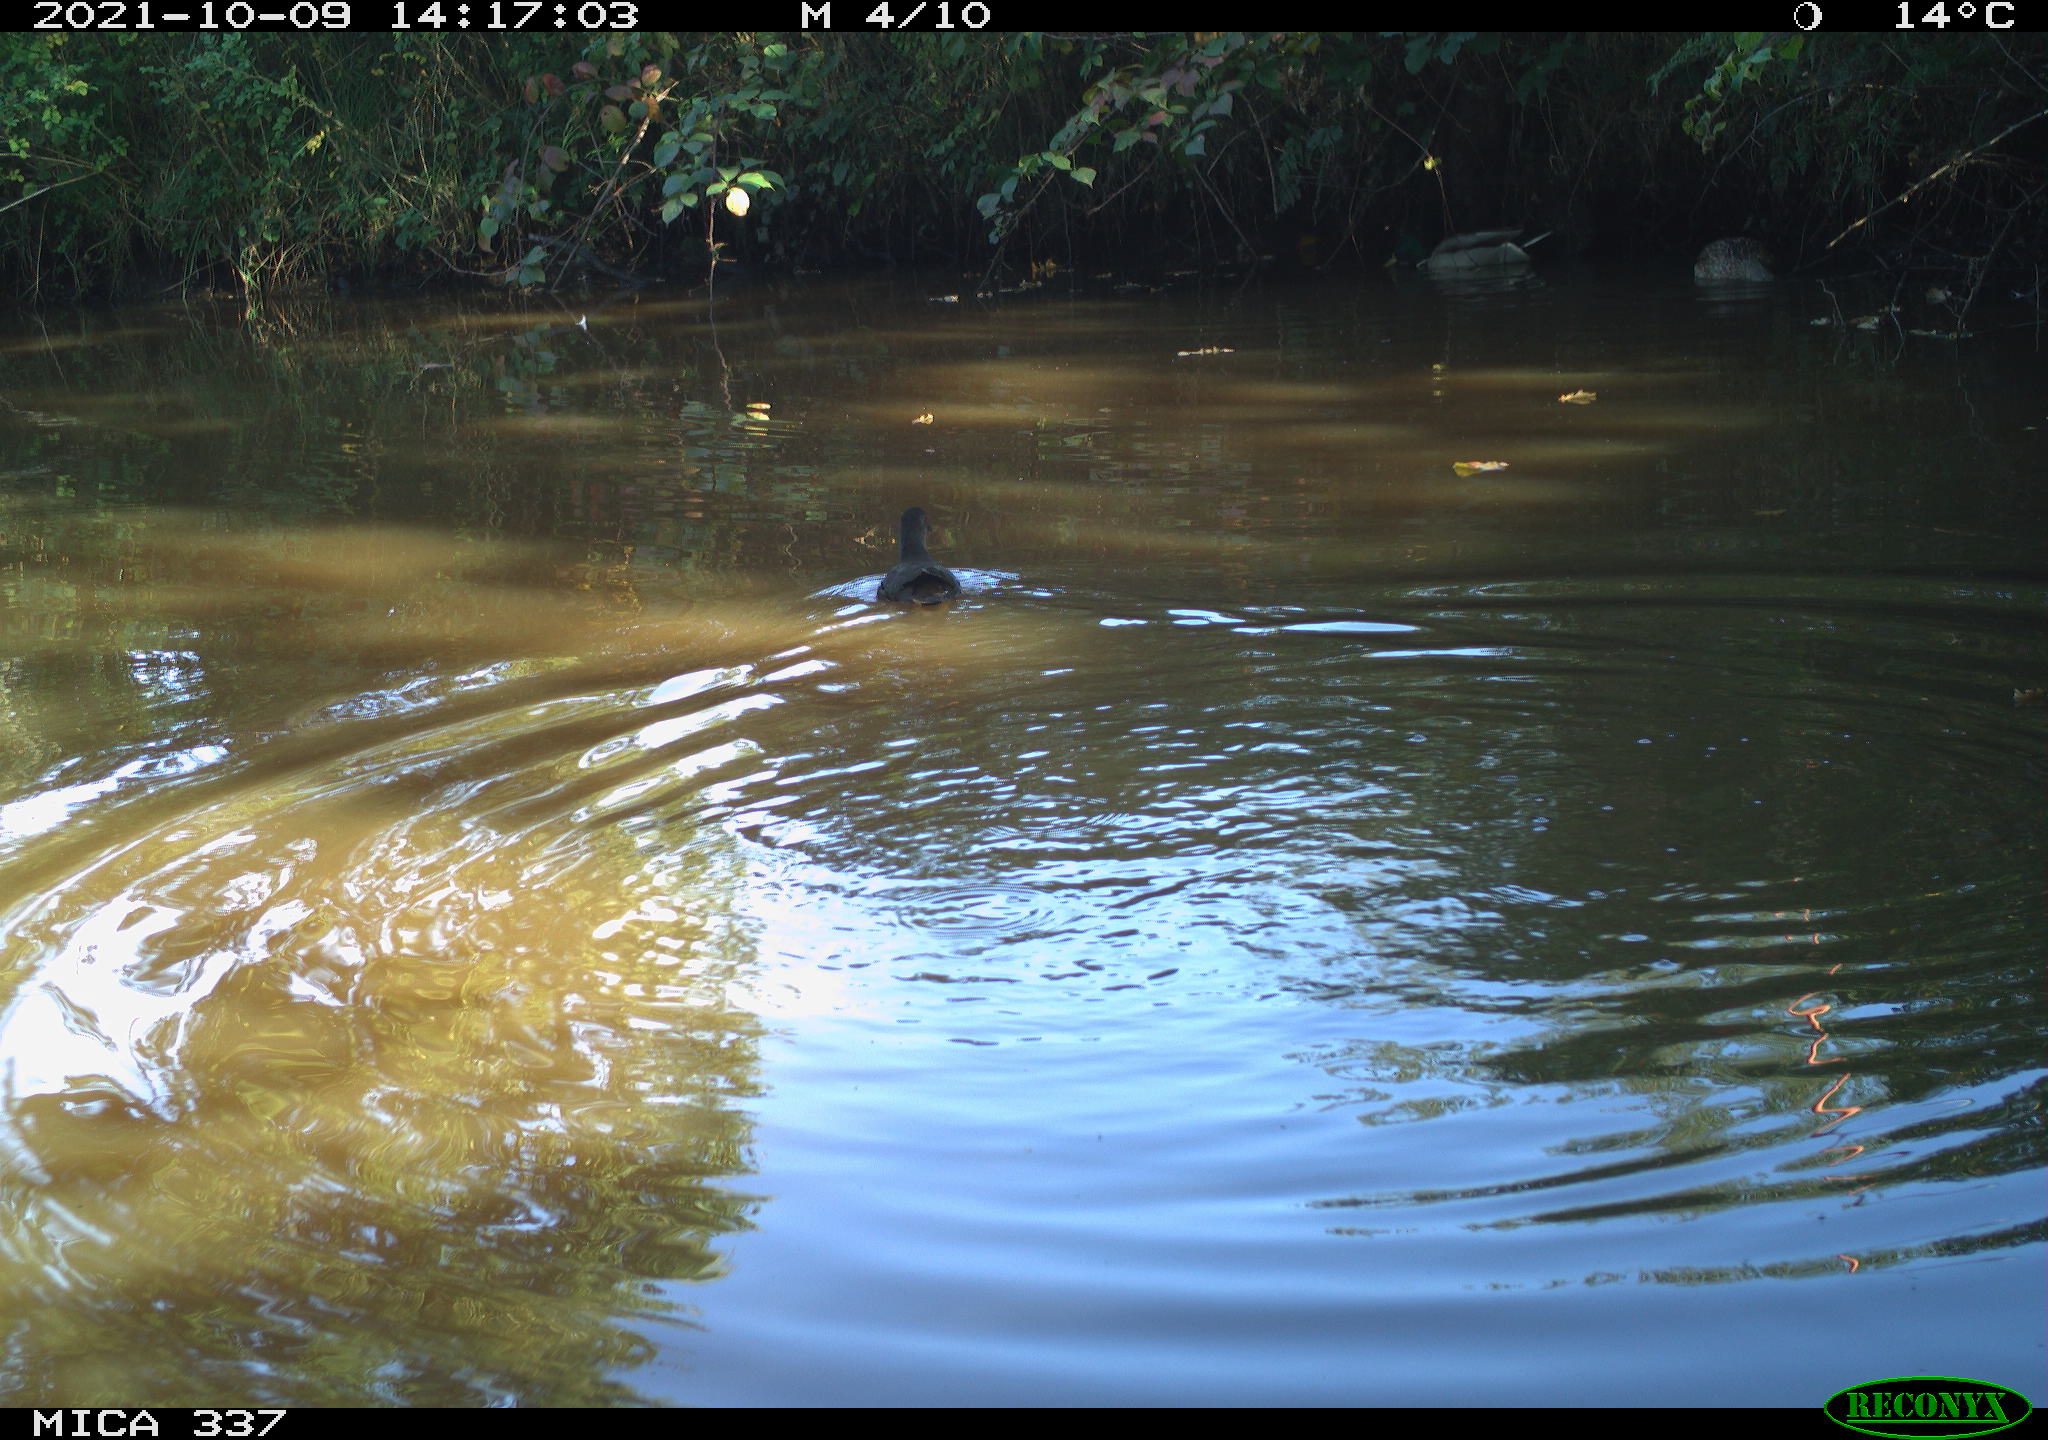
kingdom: Animalia
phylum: Chordata
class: Aves
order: Anseriformes
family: Anatidae
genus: Anas
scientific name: Anas platyrhynchos
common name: Mallard
